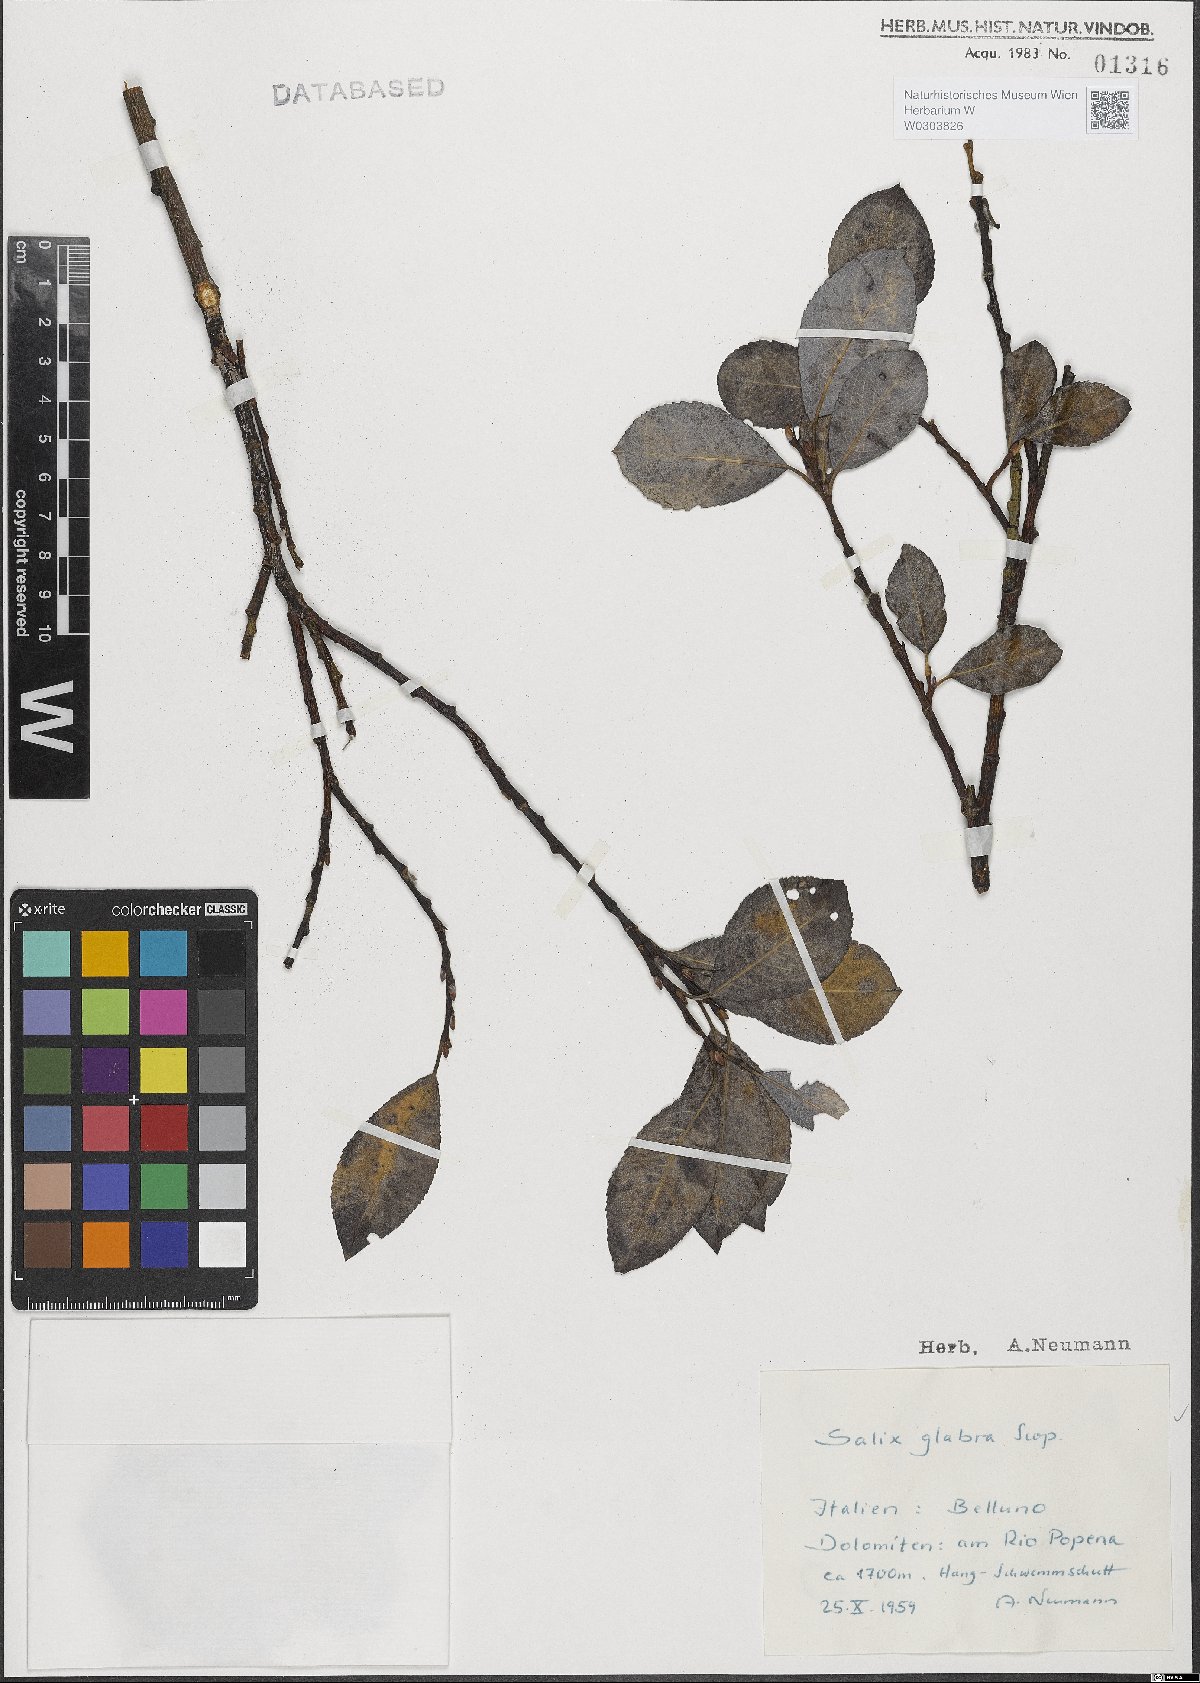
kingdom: Plantae
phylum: Tracheophyta
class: Magnoliopsida
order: Malpighiales
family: Salicaceae
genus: Salix
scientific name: Salix glabra
